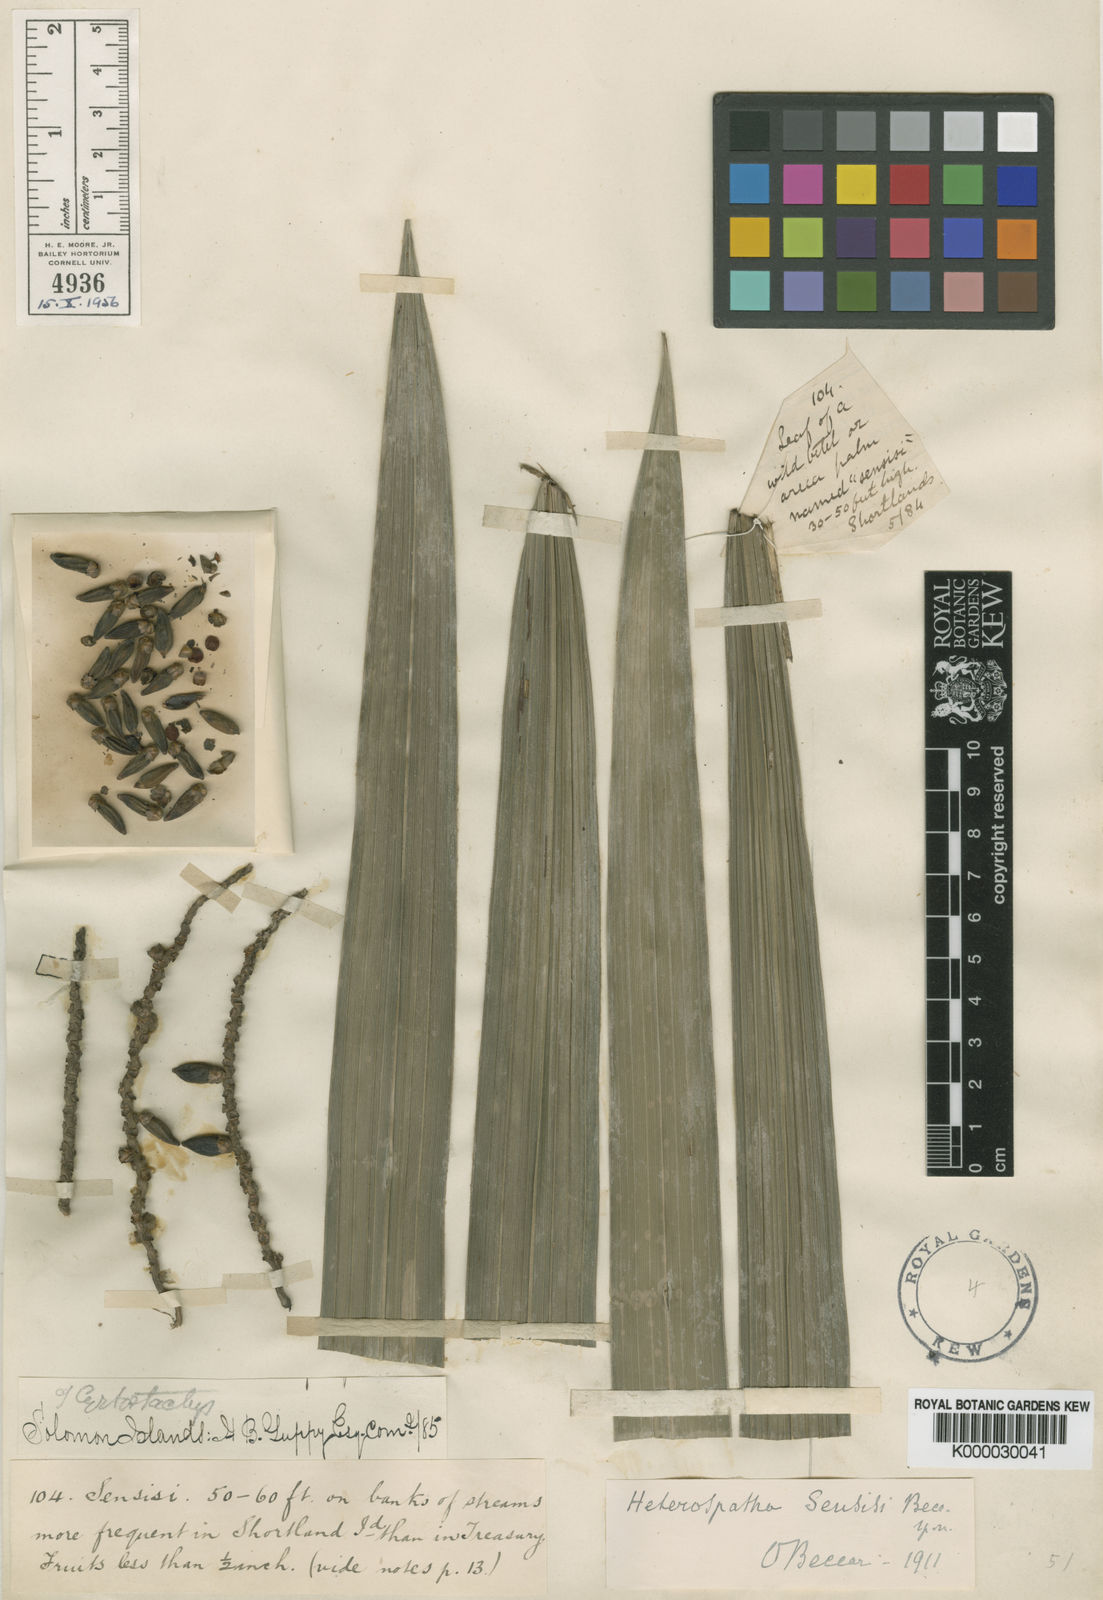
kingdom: Plantae
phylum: Tracheophyta
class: Liliopsida
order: Arecales
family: Arecaceae
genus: Heterospathe
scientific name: Heterospathe sensisi
